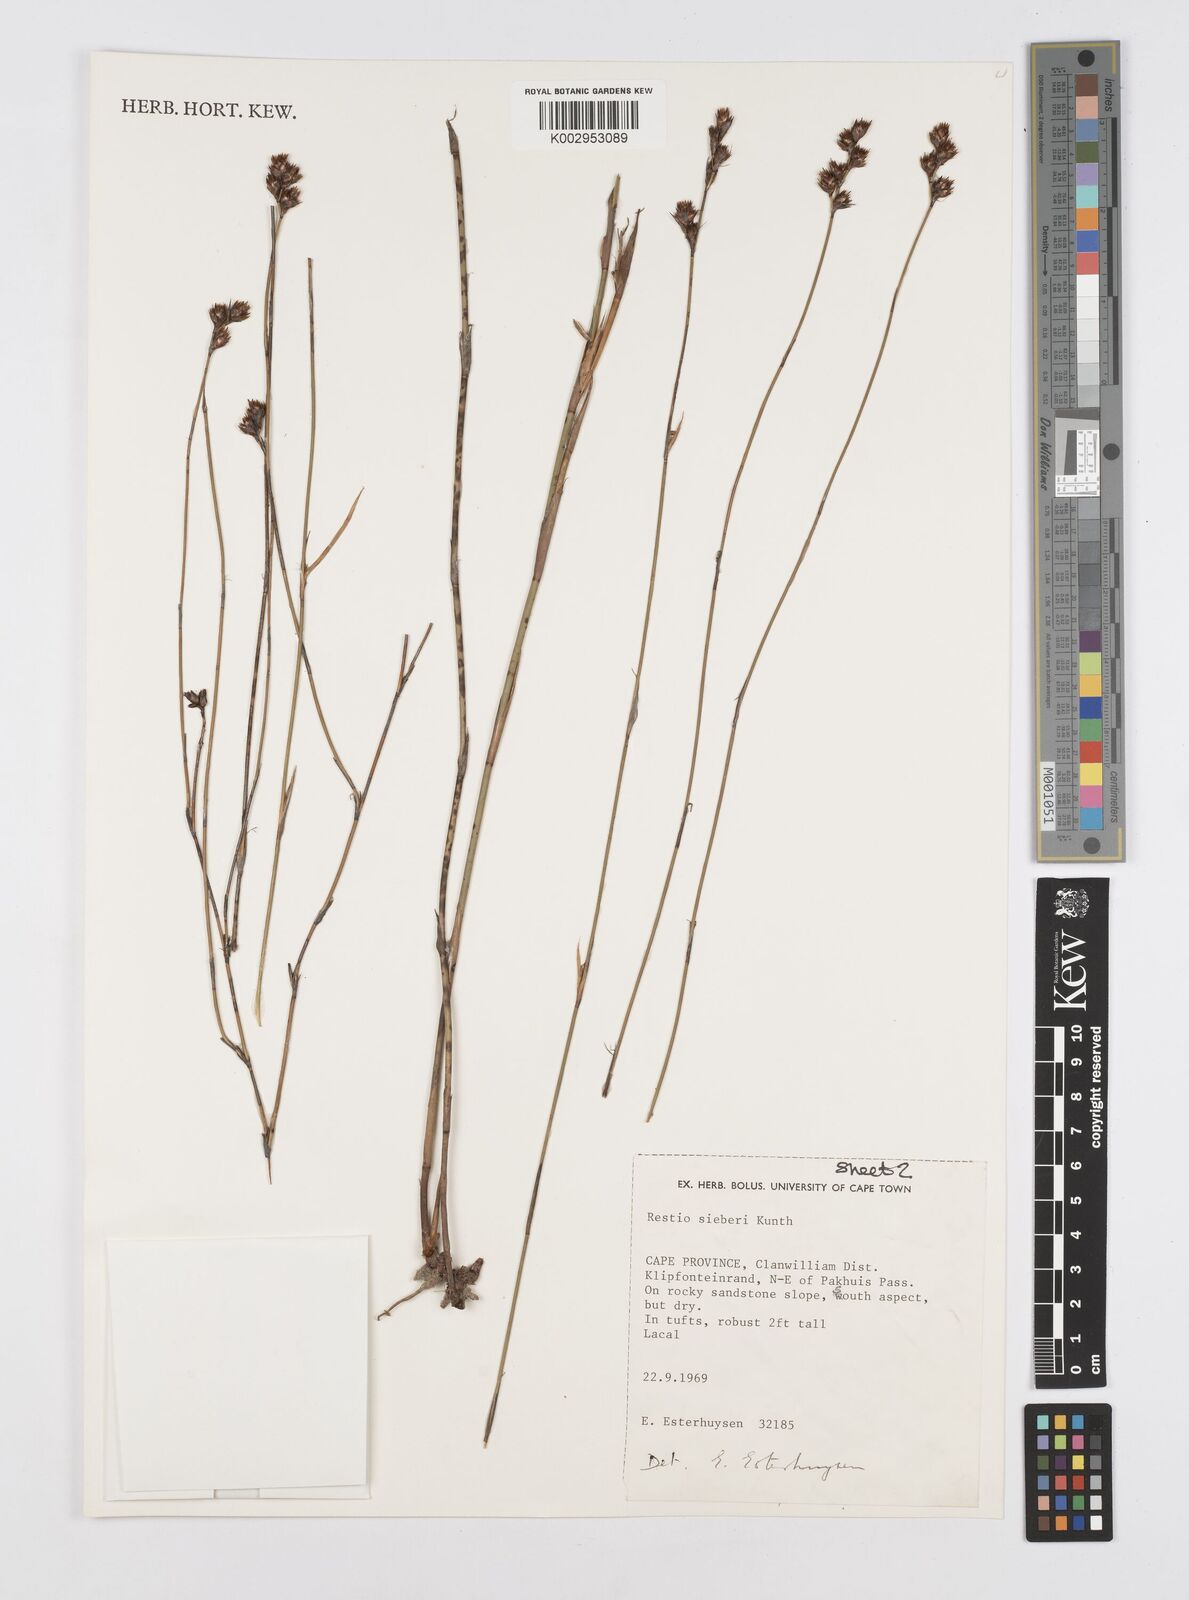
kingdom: Plantae
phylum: Tracheophyta
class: Liliopsida
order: Poales
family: Restionaceae
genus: Restio
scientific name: Restio sieberi
